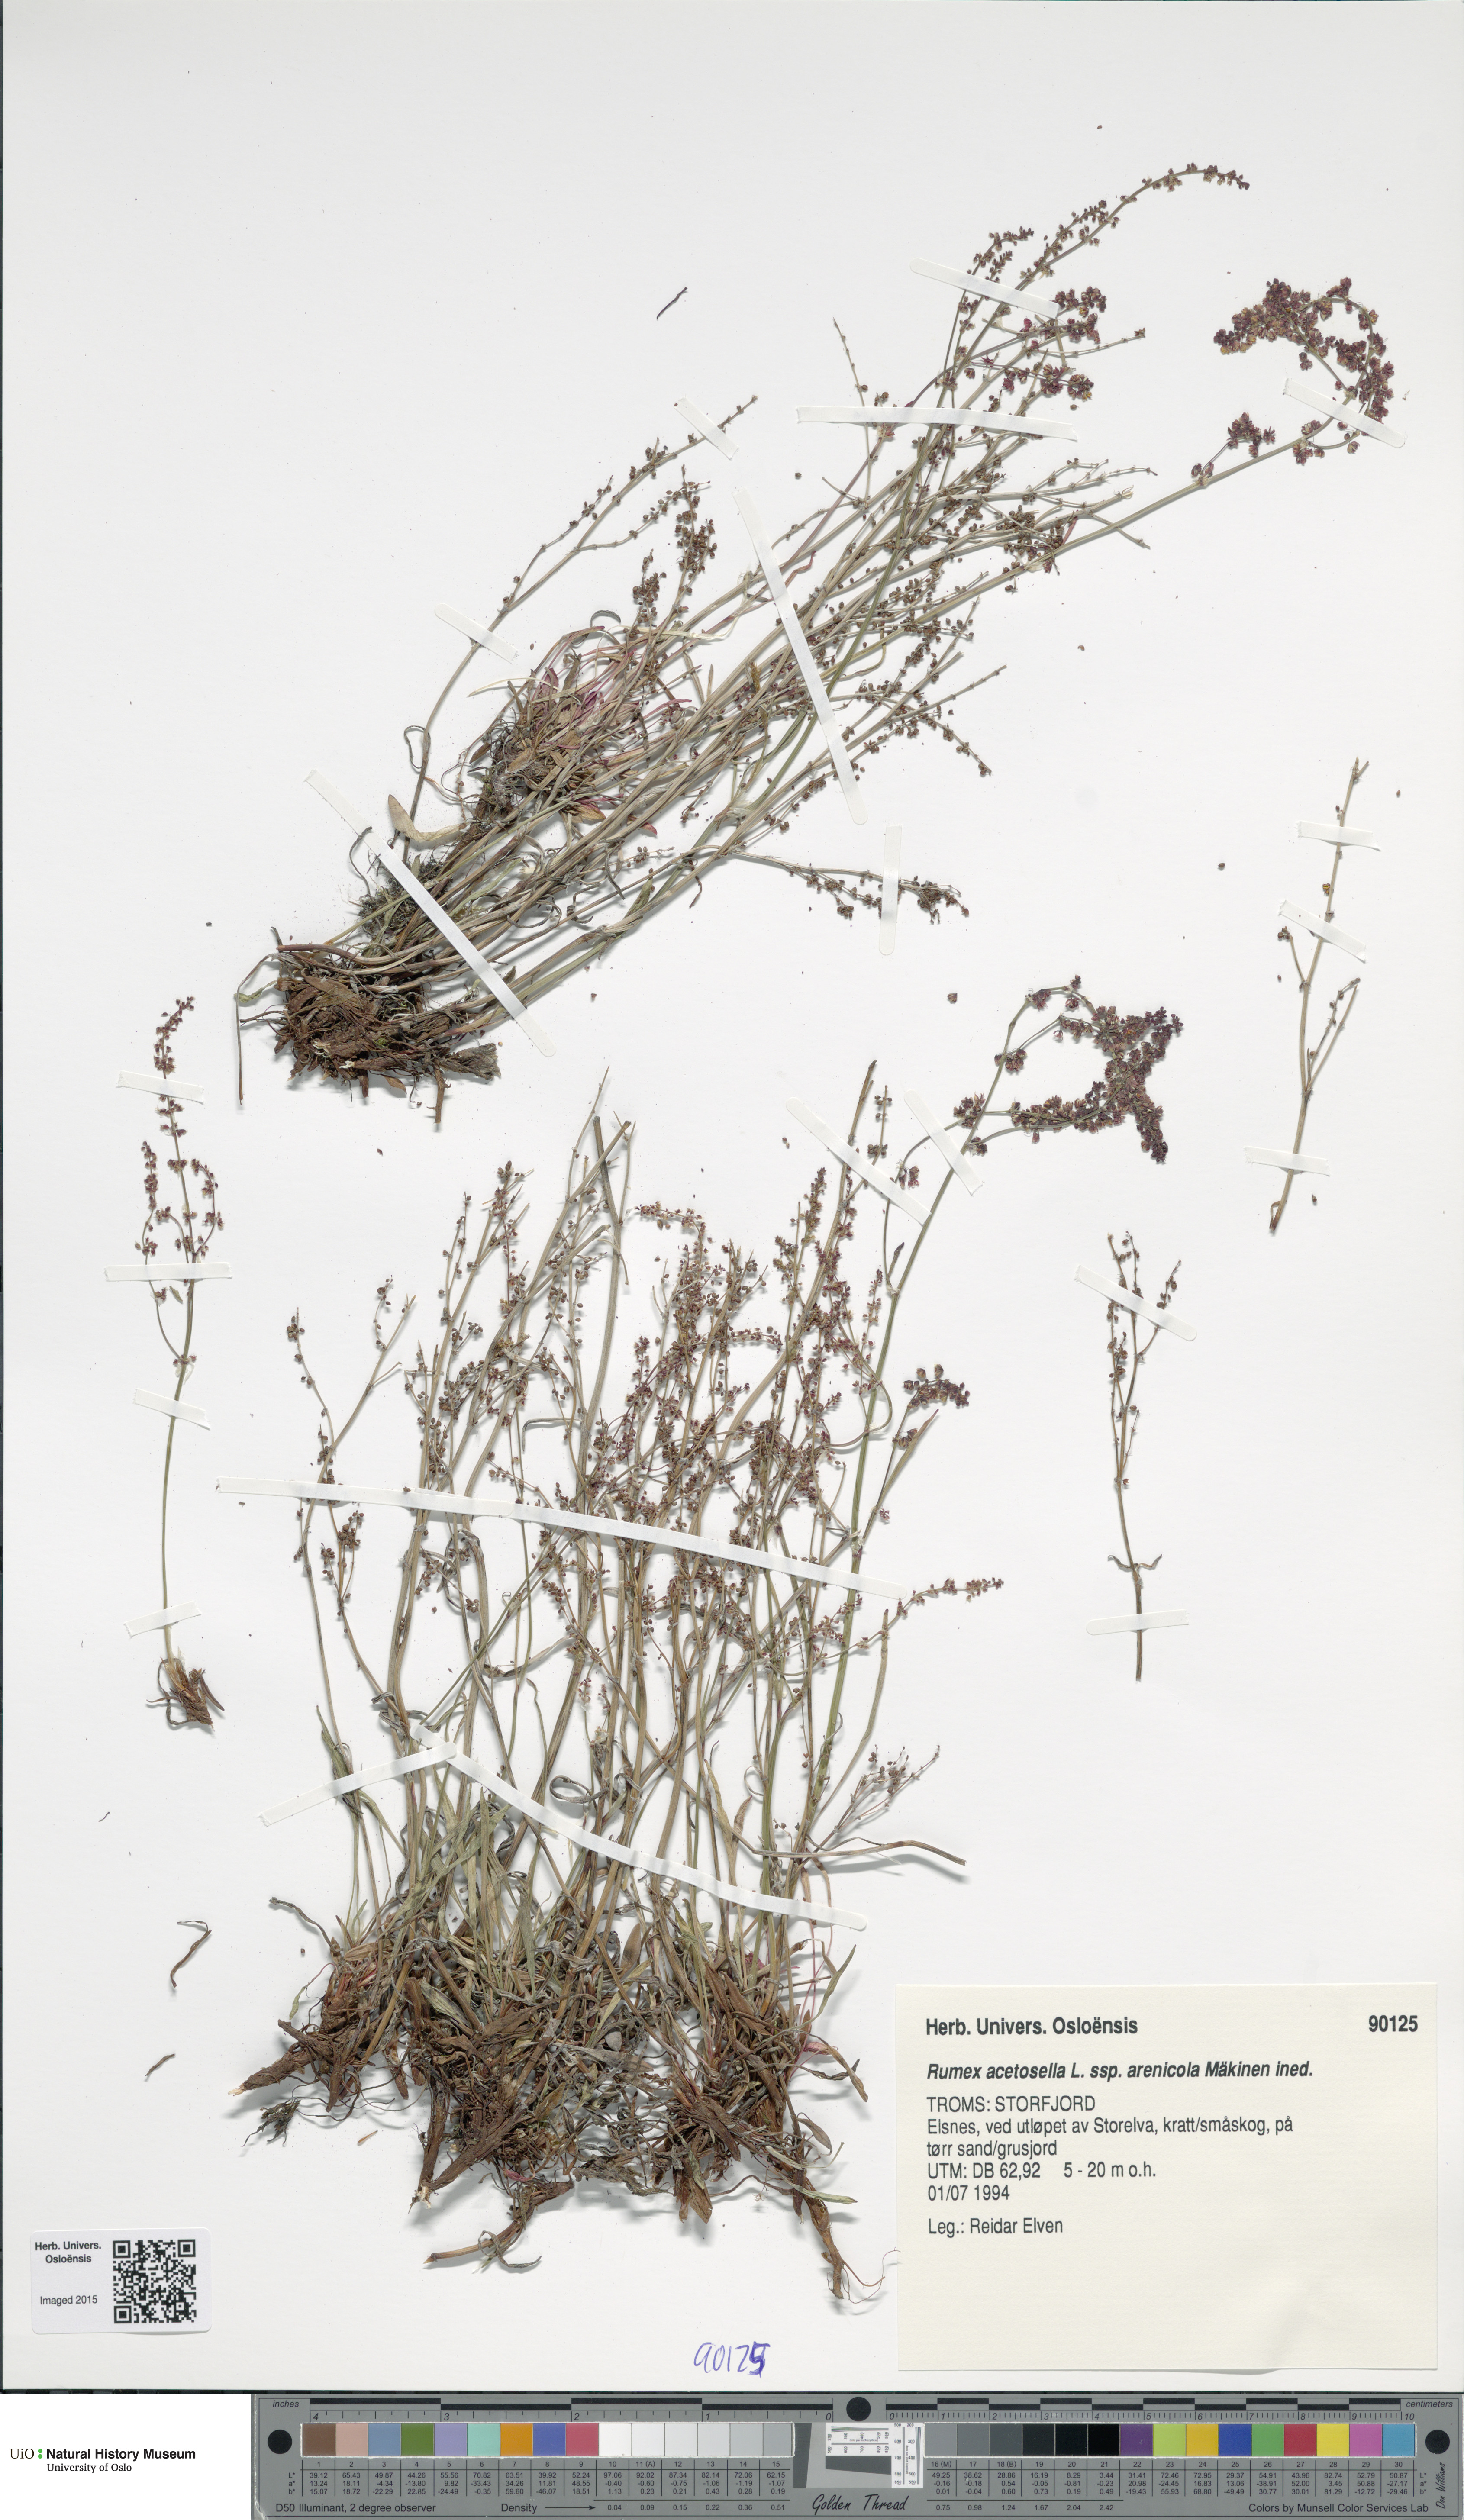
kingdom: Plantae
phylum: Tracheophyta
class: Magnoliopsida
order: Caryophyllales
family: Polygonaceae
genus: Rumex
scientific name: Rumex acetosella
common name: Common sheep sorrel
